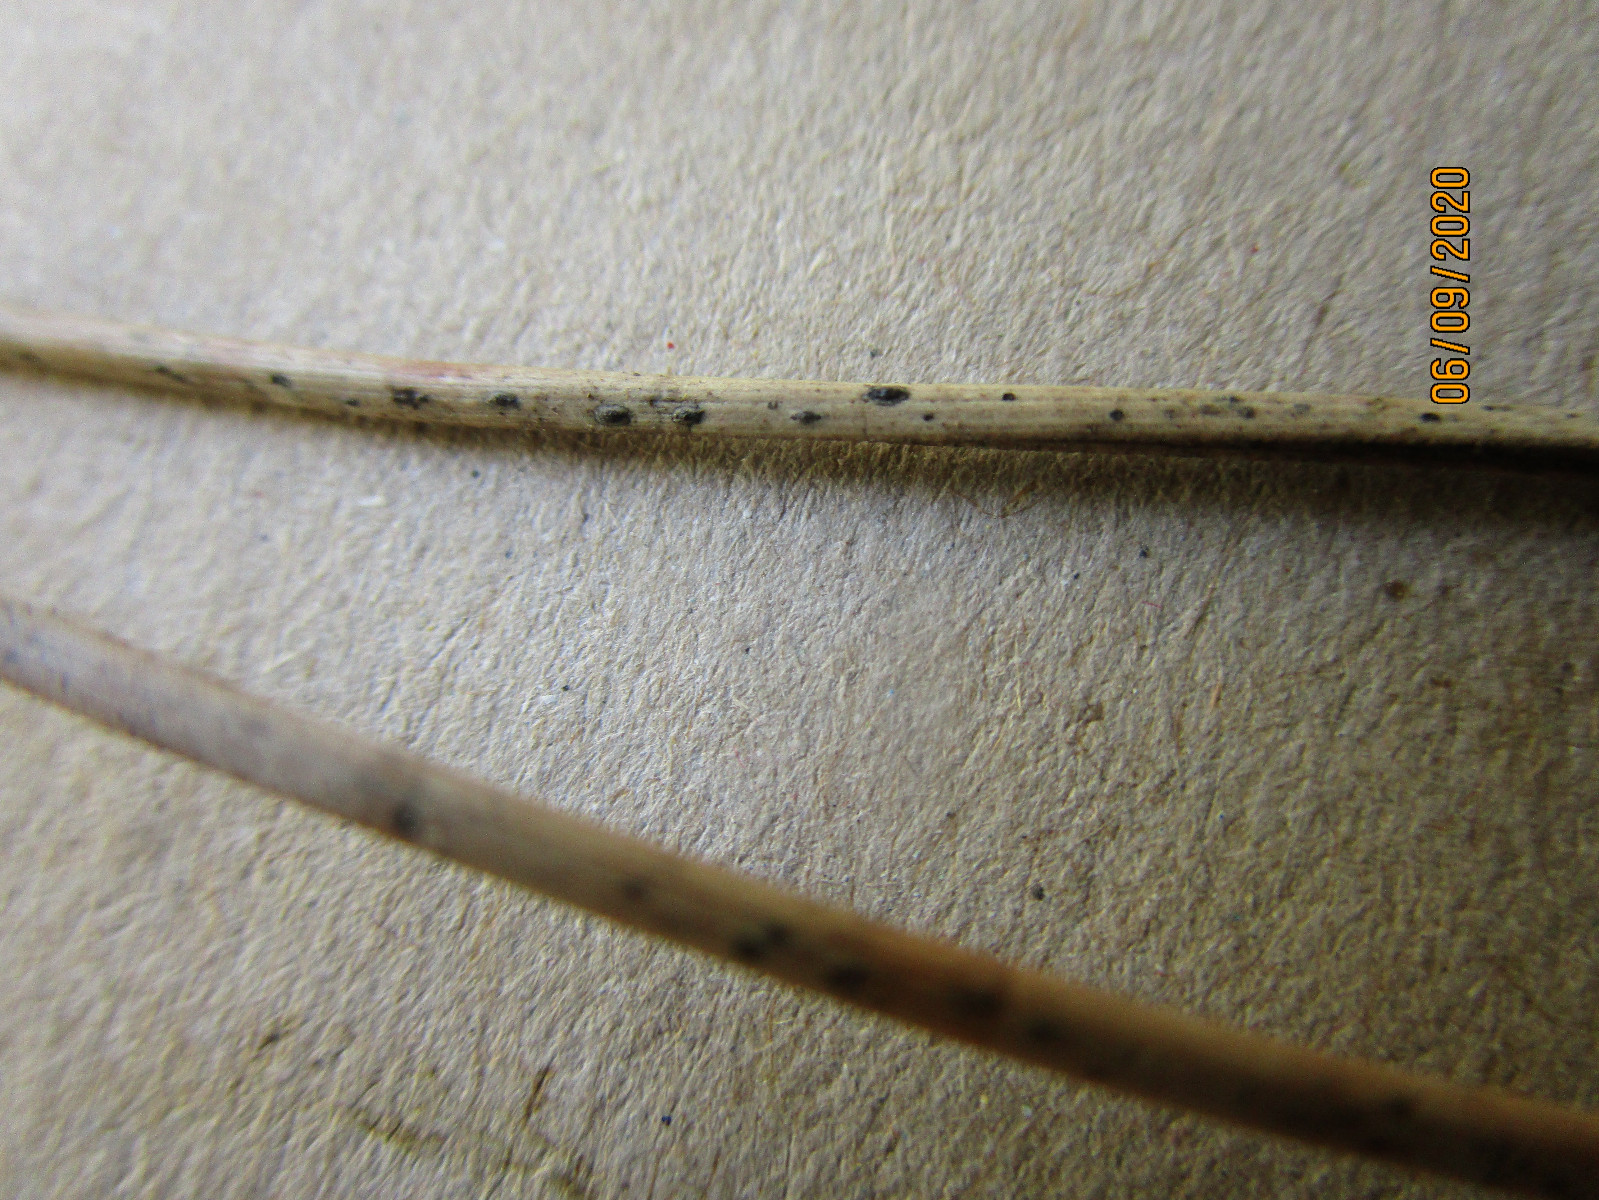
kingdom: Fungi
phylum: Ascomycota
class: Leotiomycetes
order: Rhytismatales
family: Rhytismataceae
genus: Lophodermium
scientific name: Lophodermium pinastri
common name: fyrre-fureplet
